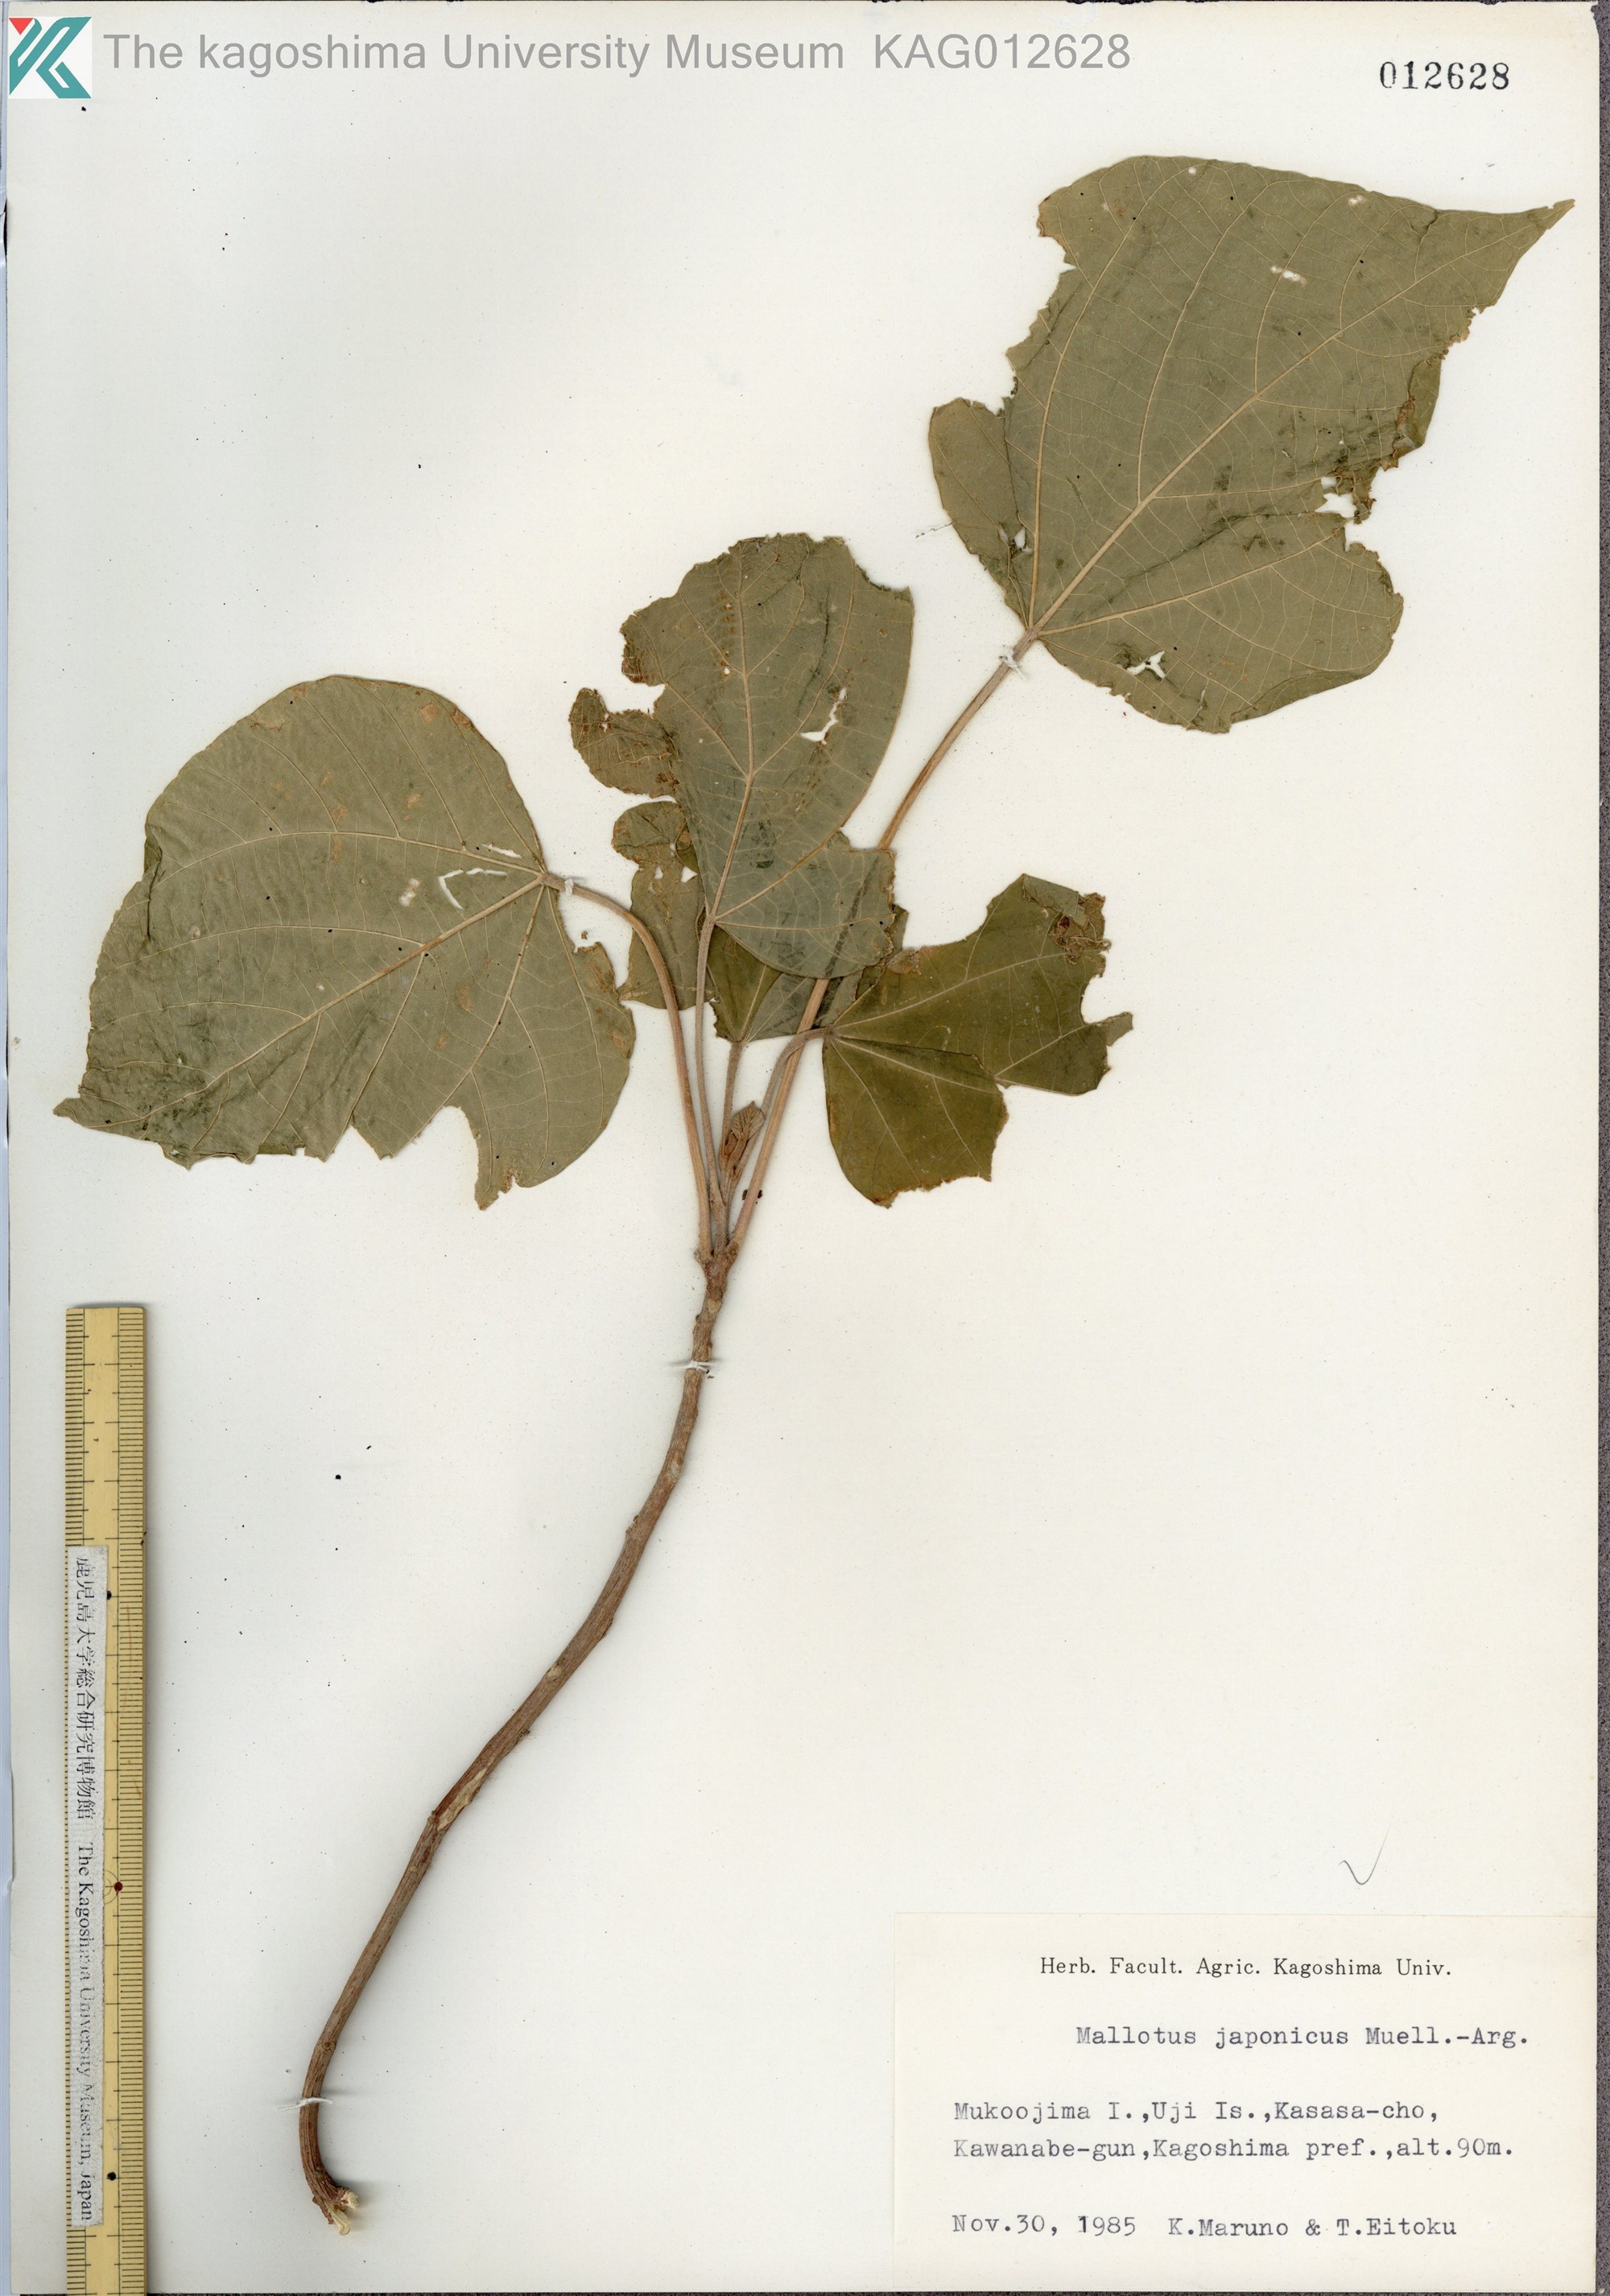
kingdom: Plantae
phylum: Tracheophyta
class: Magnoliopsida
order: Malpighiales
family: Euphorbiaceae
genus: Mallotus
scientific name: Mallotus japonicus
